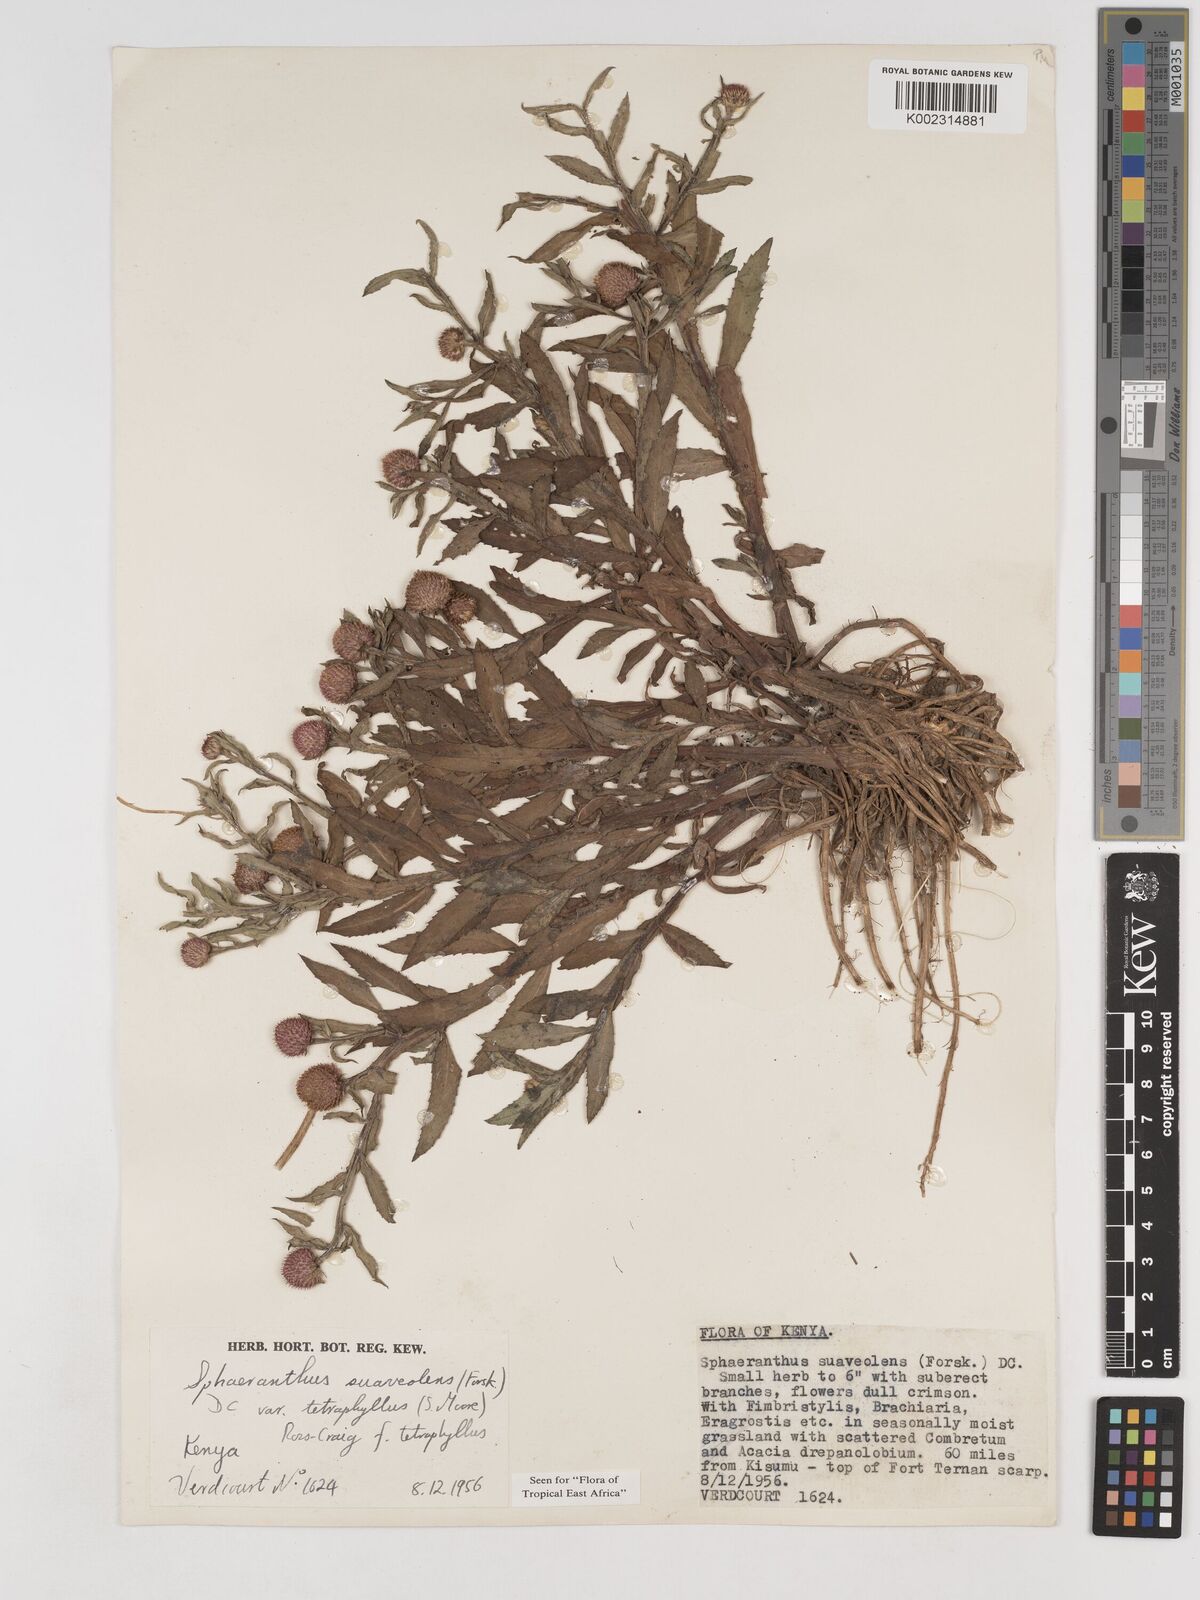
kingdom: Plantae
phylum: Tracheophyta
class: Magnoliopsida
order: Asterales
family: Asteraceae
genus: Sphaeranthus
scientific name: Sphaeranthus suaveolens
